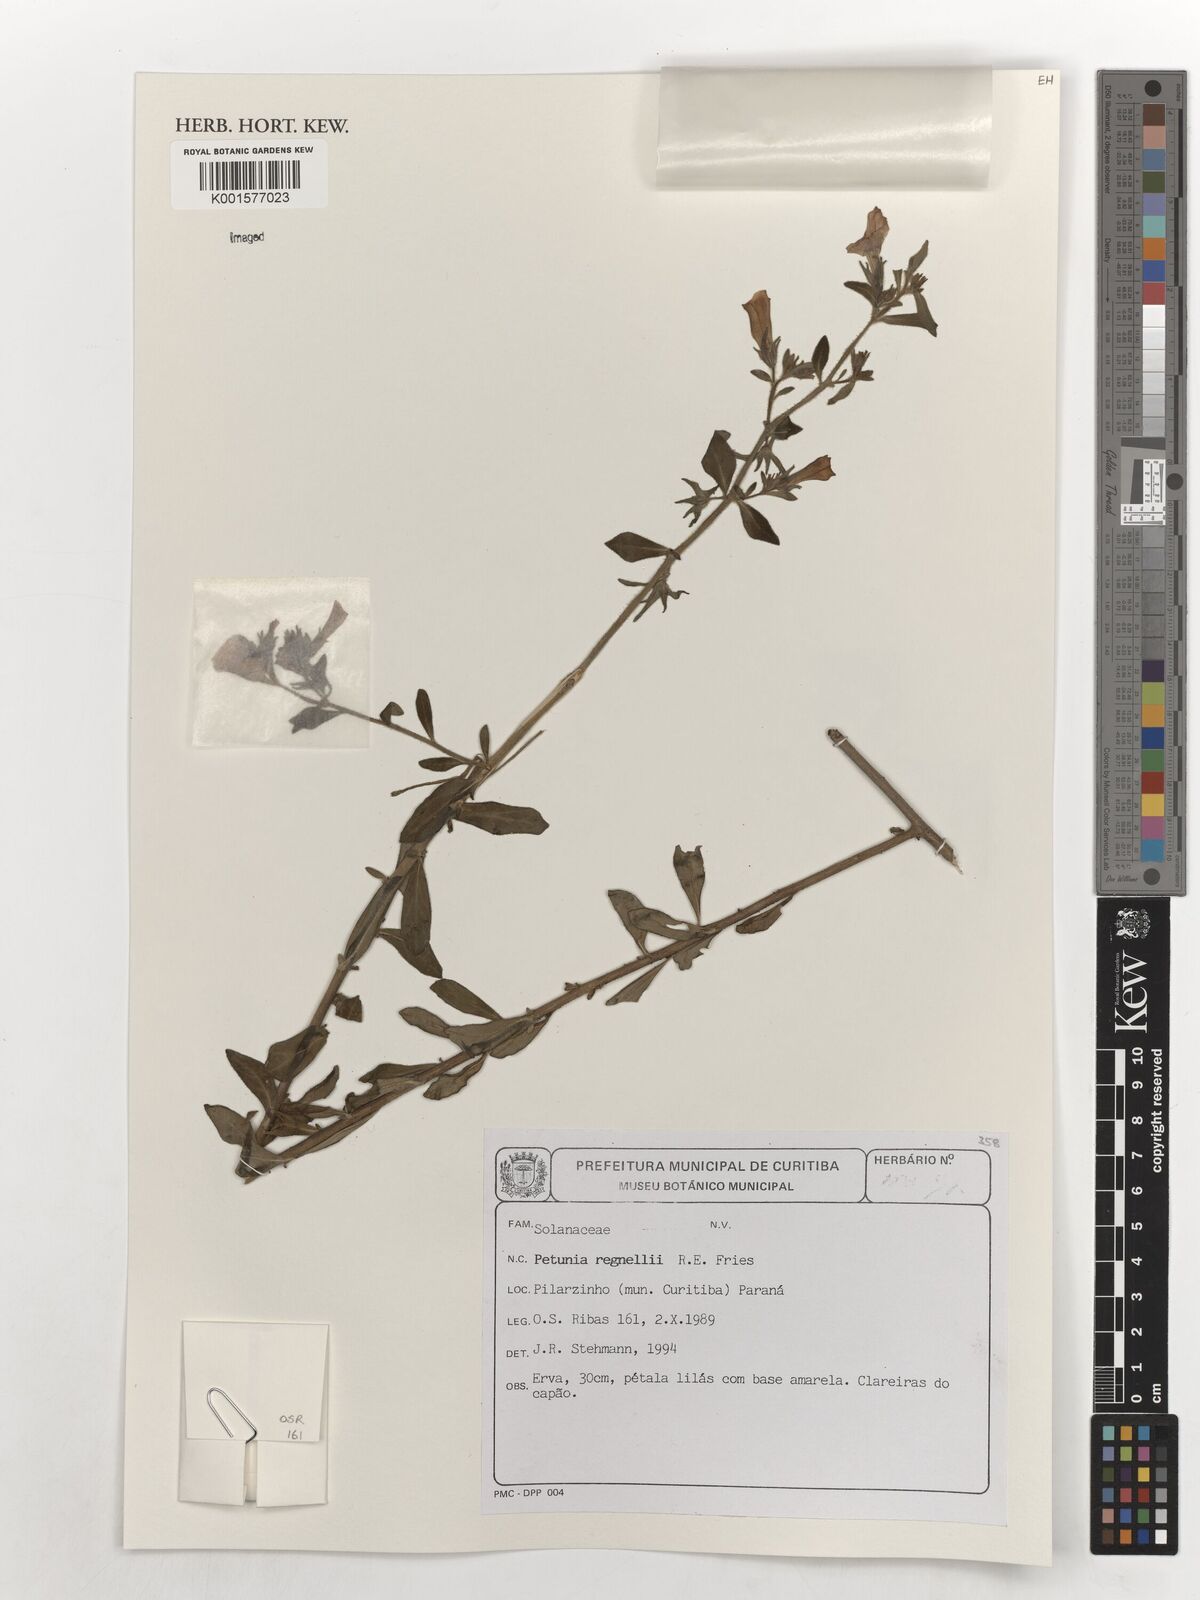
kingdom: Plantae
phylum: Tracheophyta
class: Magnoliopsida
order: Solanales
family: Solanaceae
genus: Calibrachoa
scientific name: Calibrachoa linoides
